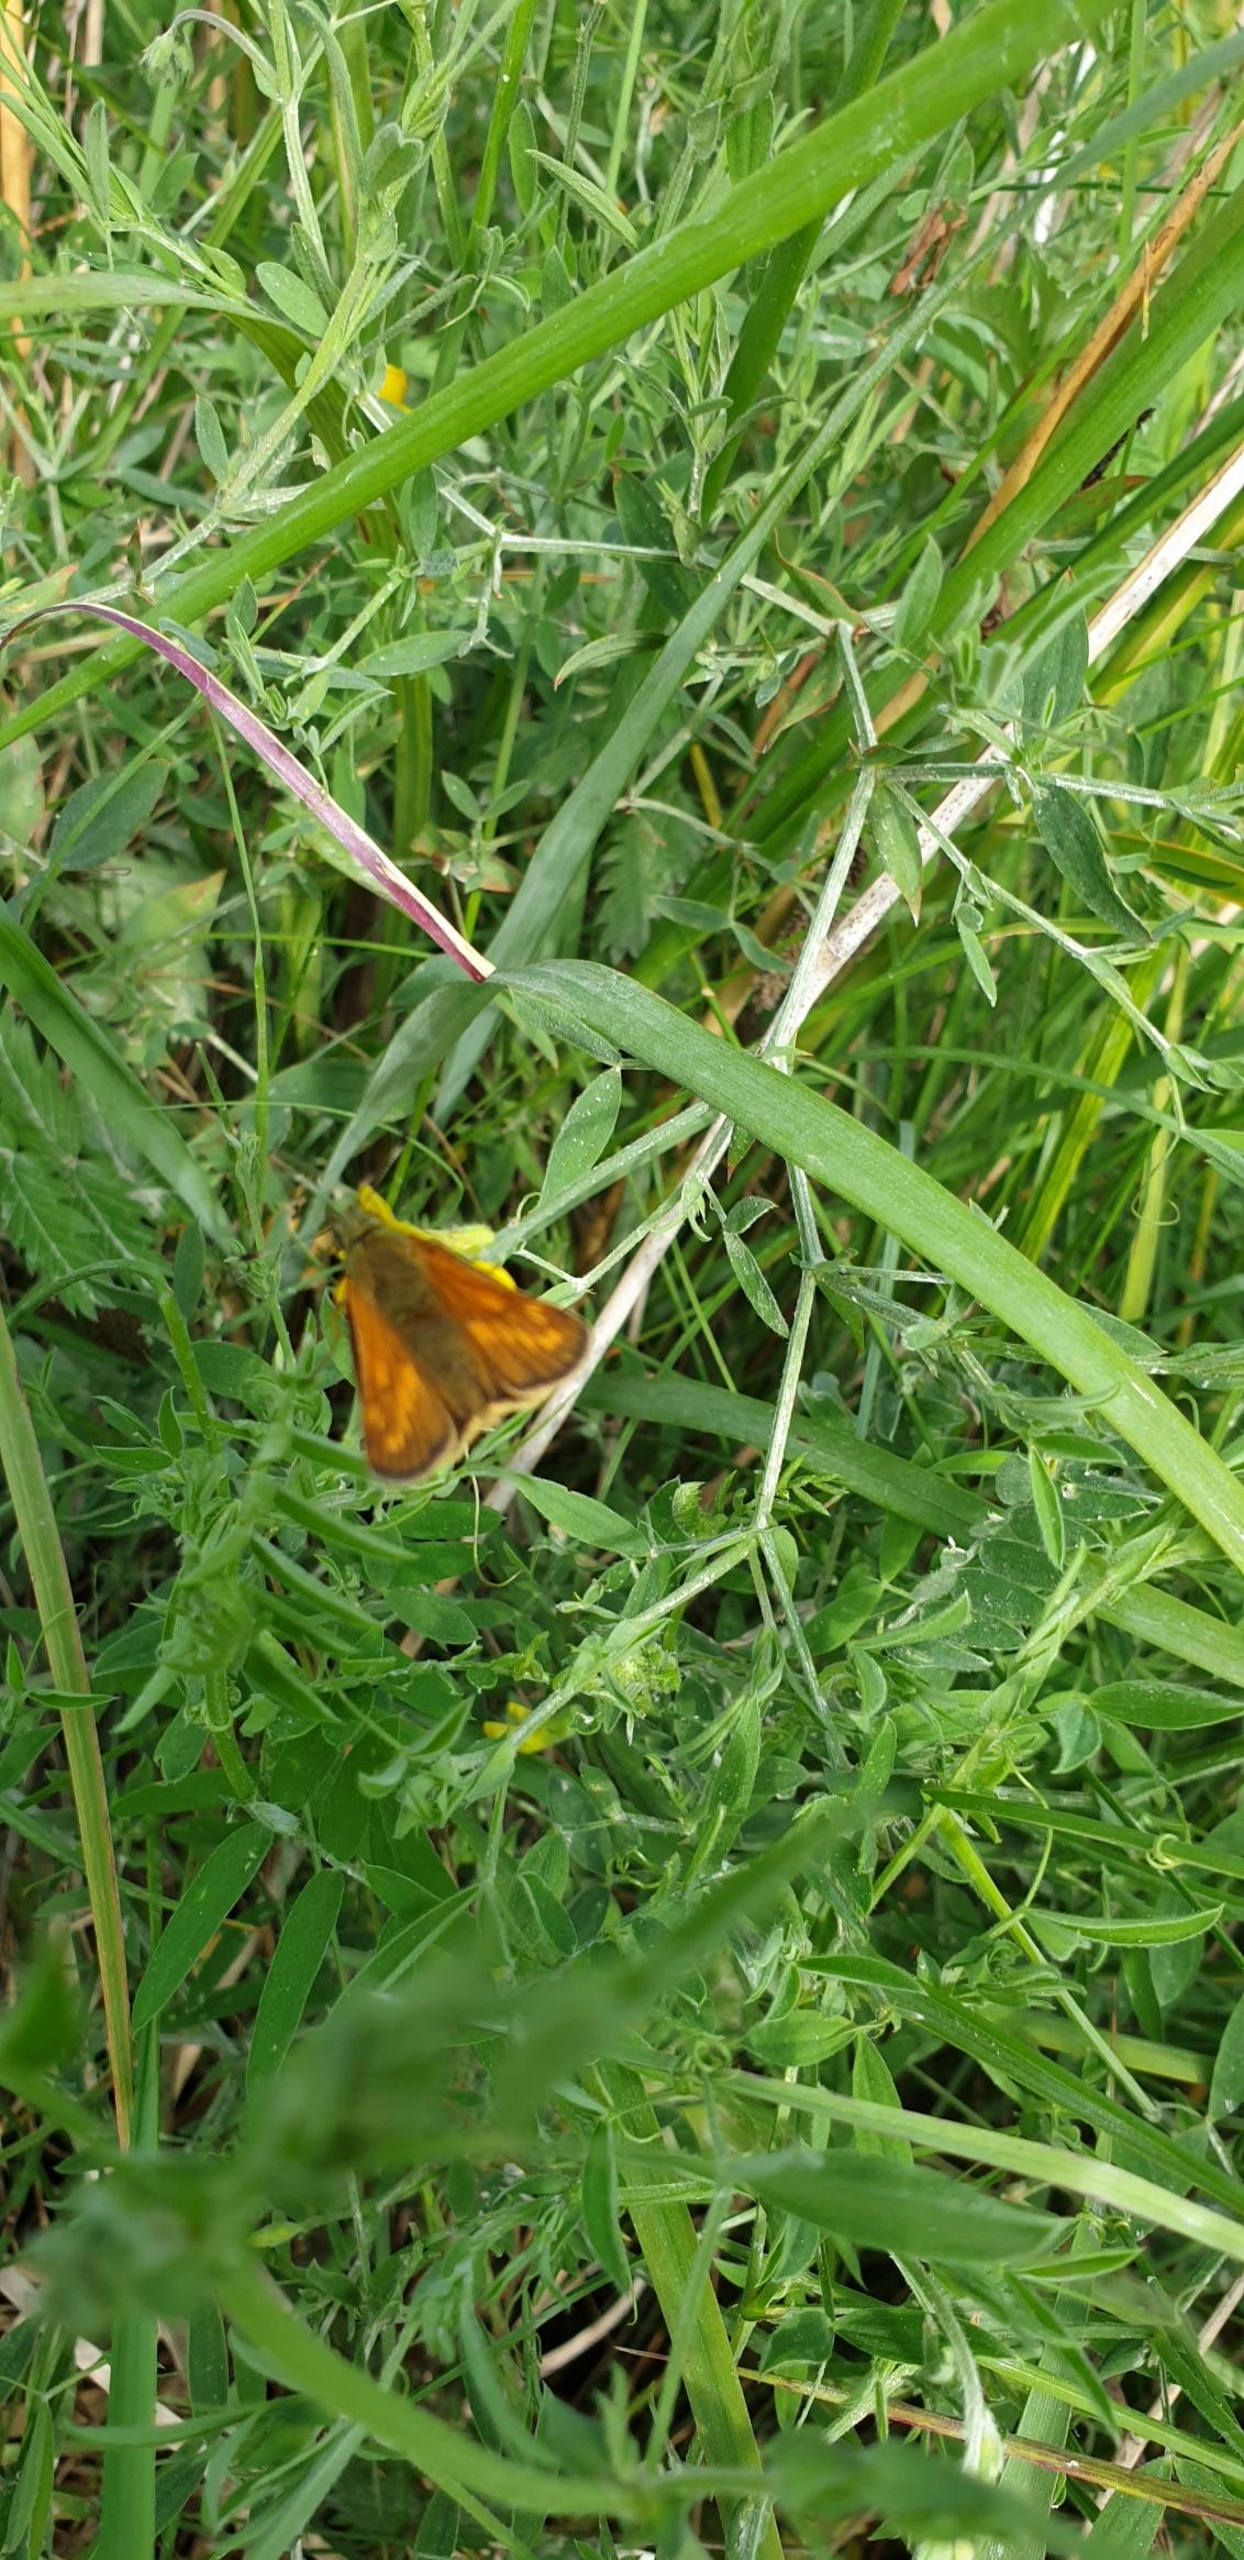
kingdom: Animalia
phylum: Arthropoda
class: Insecta
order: Lepidoptera
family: Hesperiidae
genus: Ochlodes
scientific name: Ochlodes venata
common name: Stor bredpande
